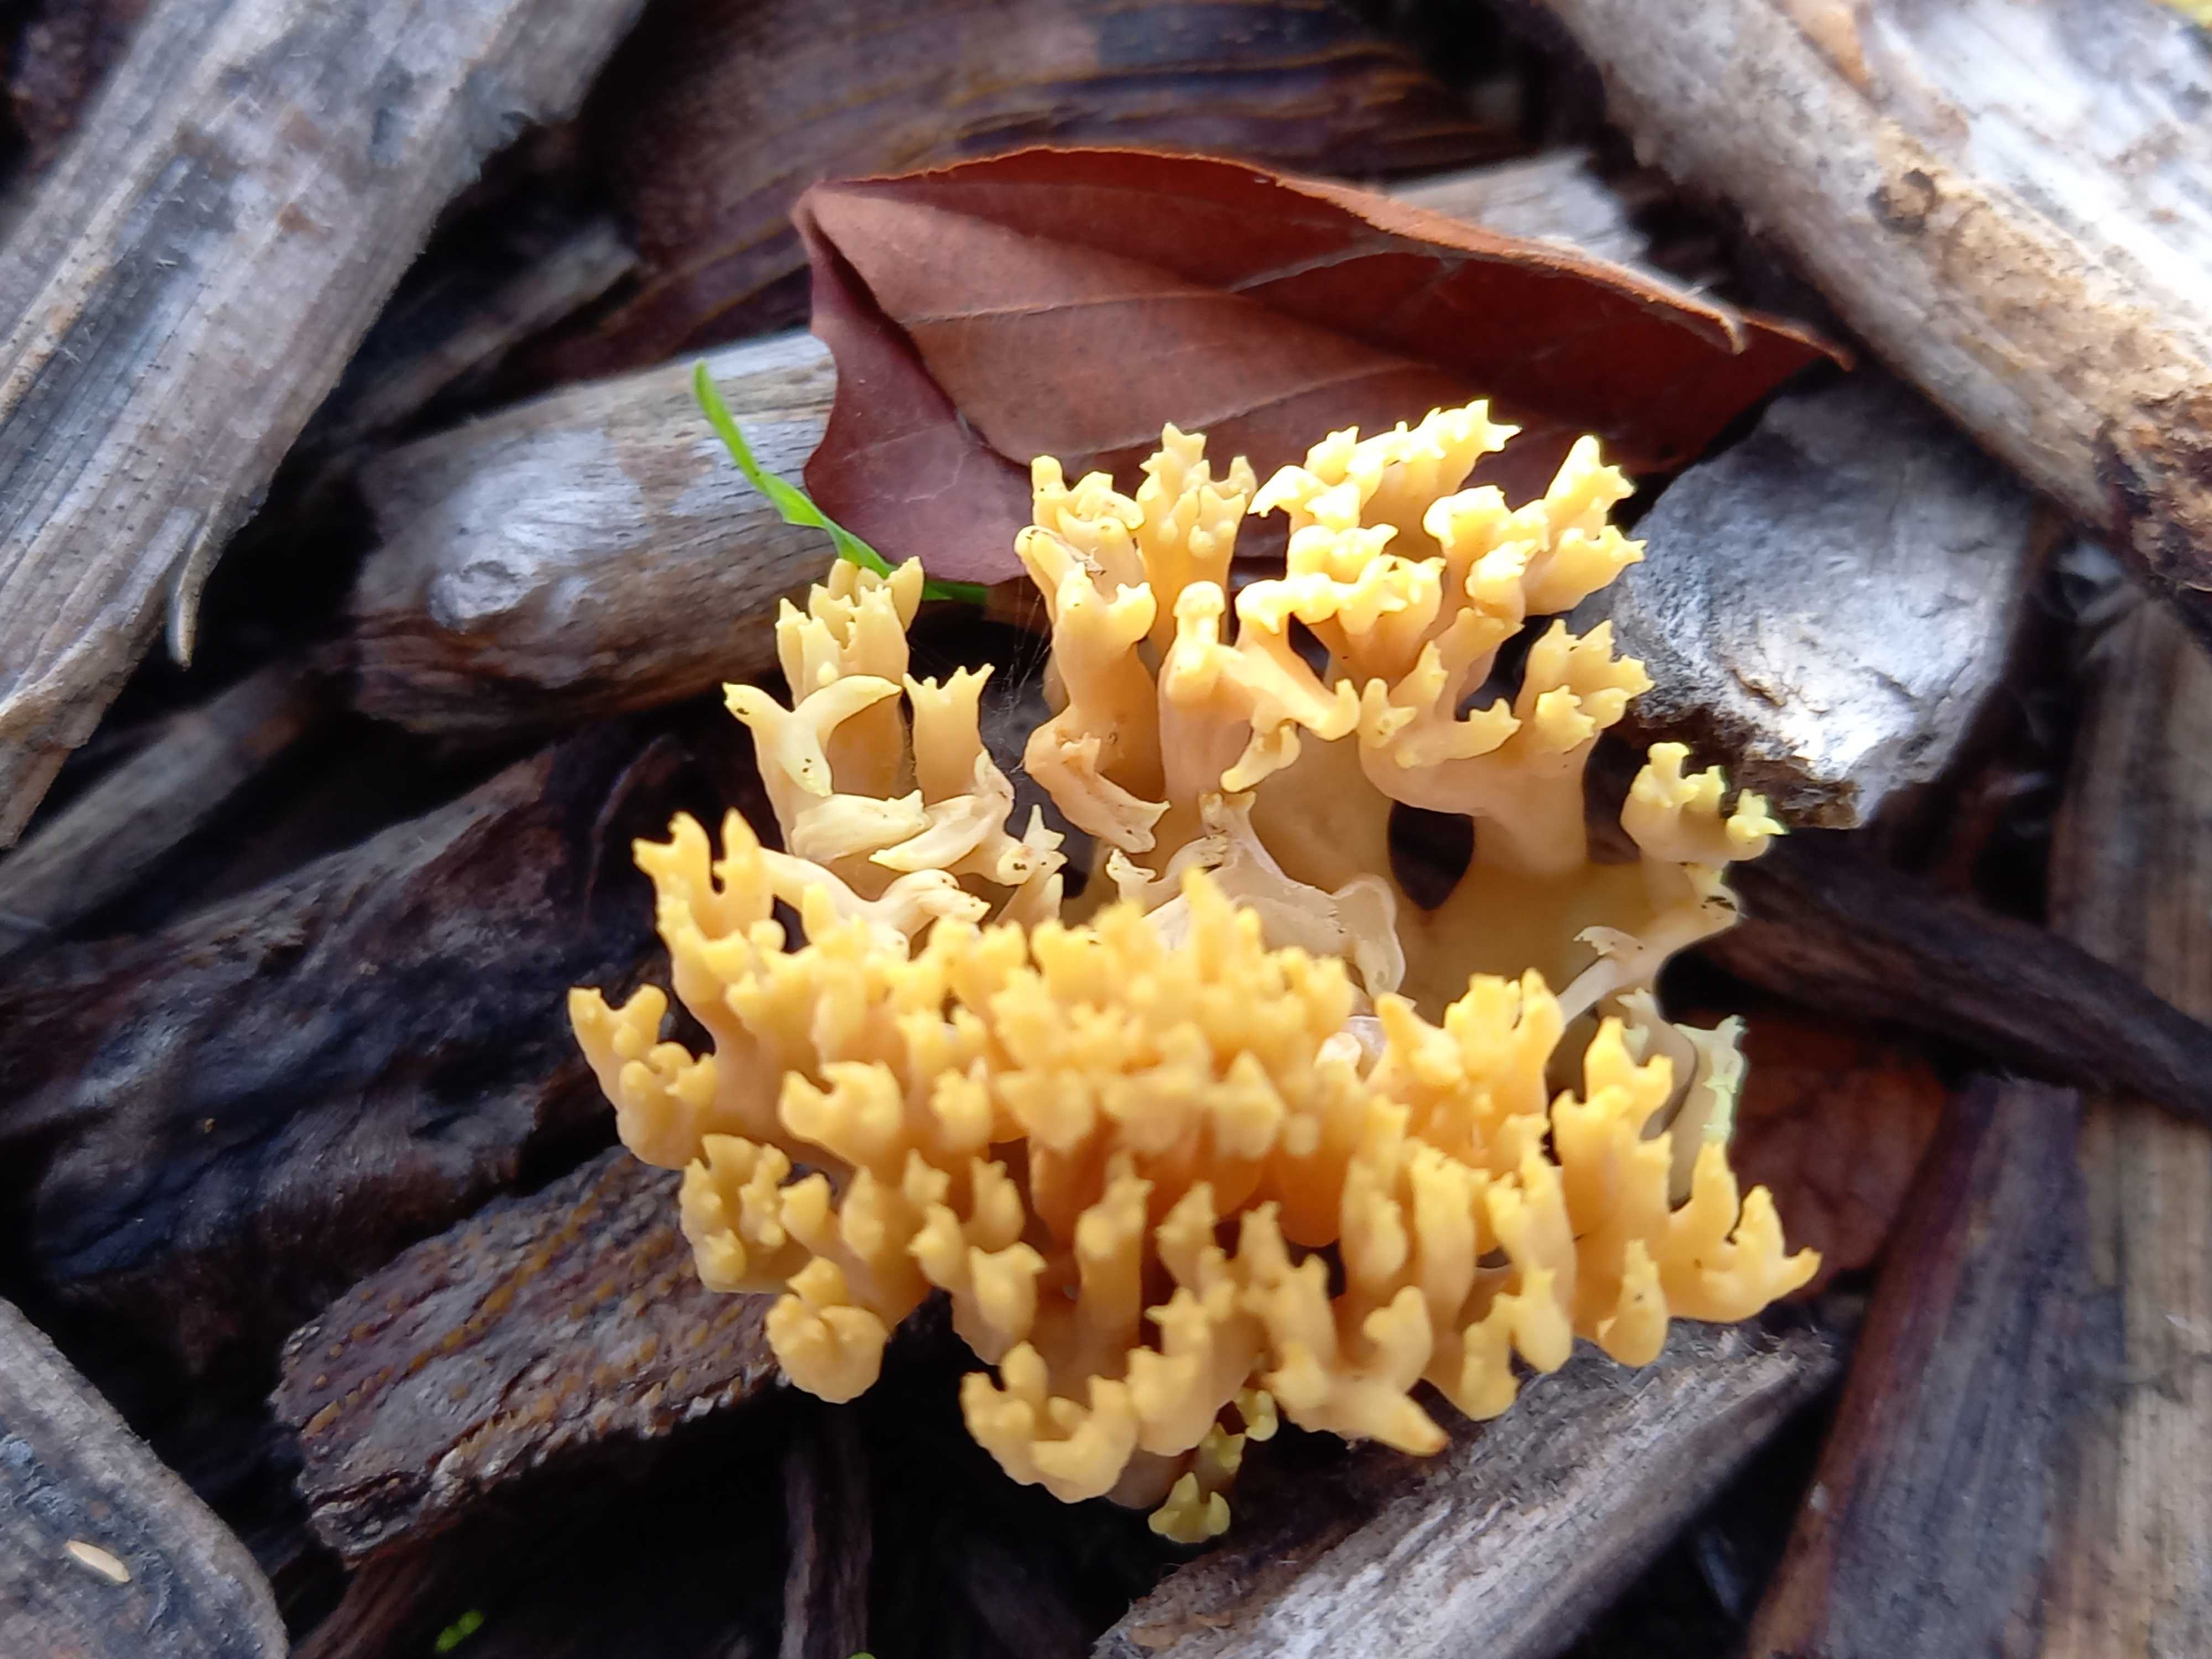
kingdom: Fungi
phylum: Basidiomycota
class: Agaricomycetes
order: Gomphales
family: Gomphaceae
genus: Ramaria
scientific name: Ramaria stricta
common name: rank koralsvamp
